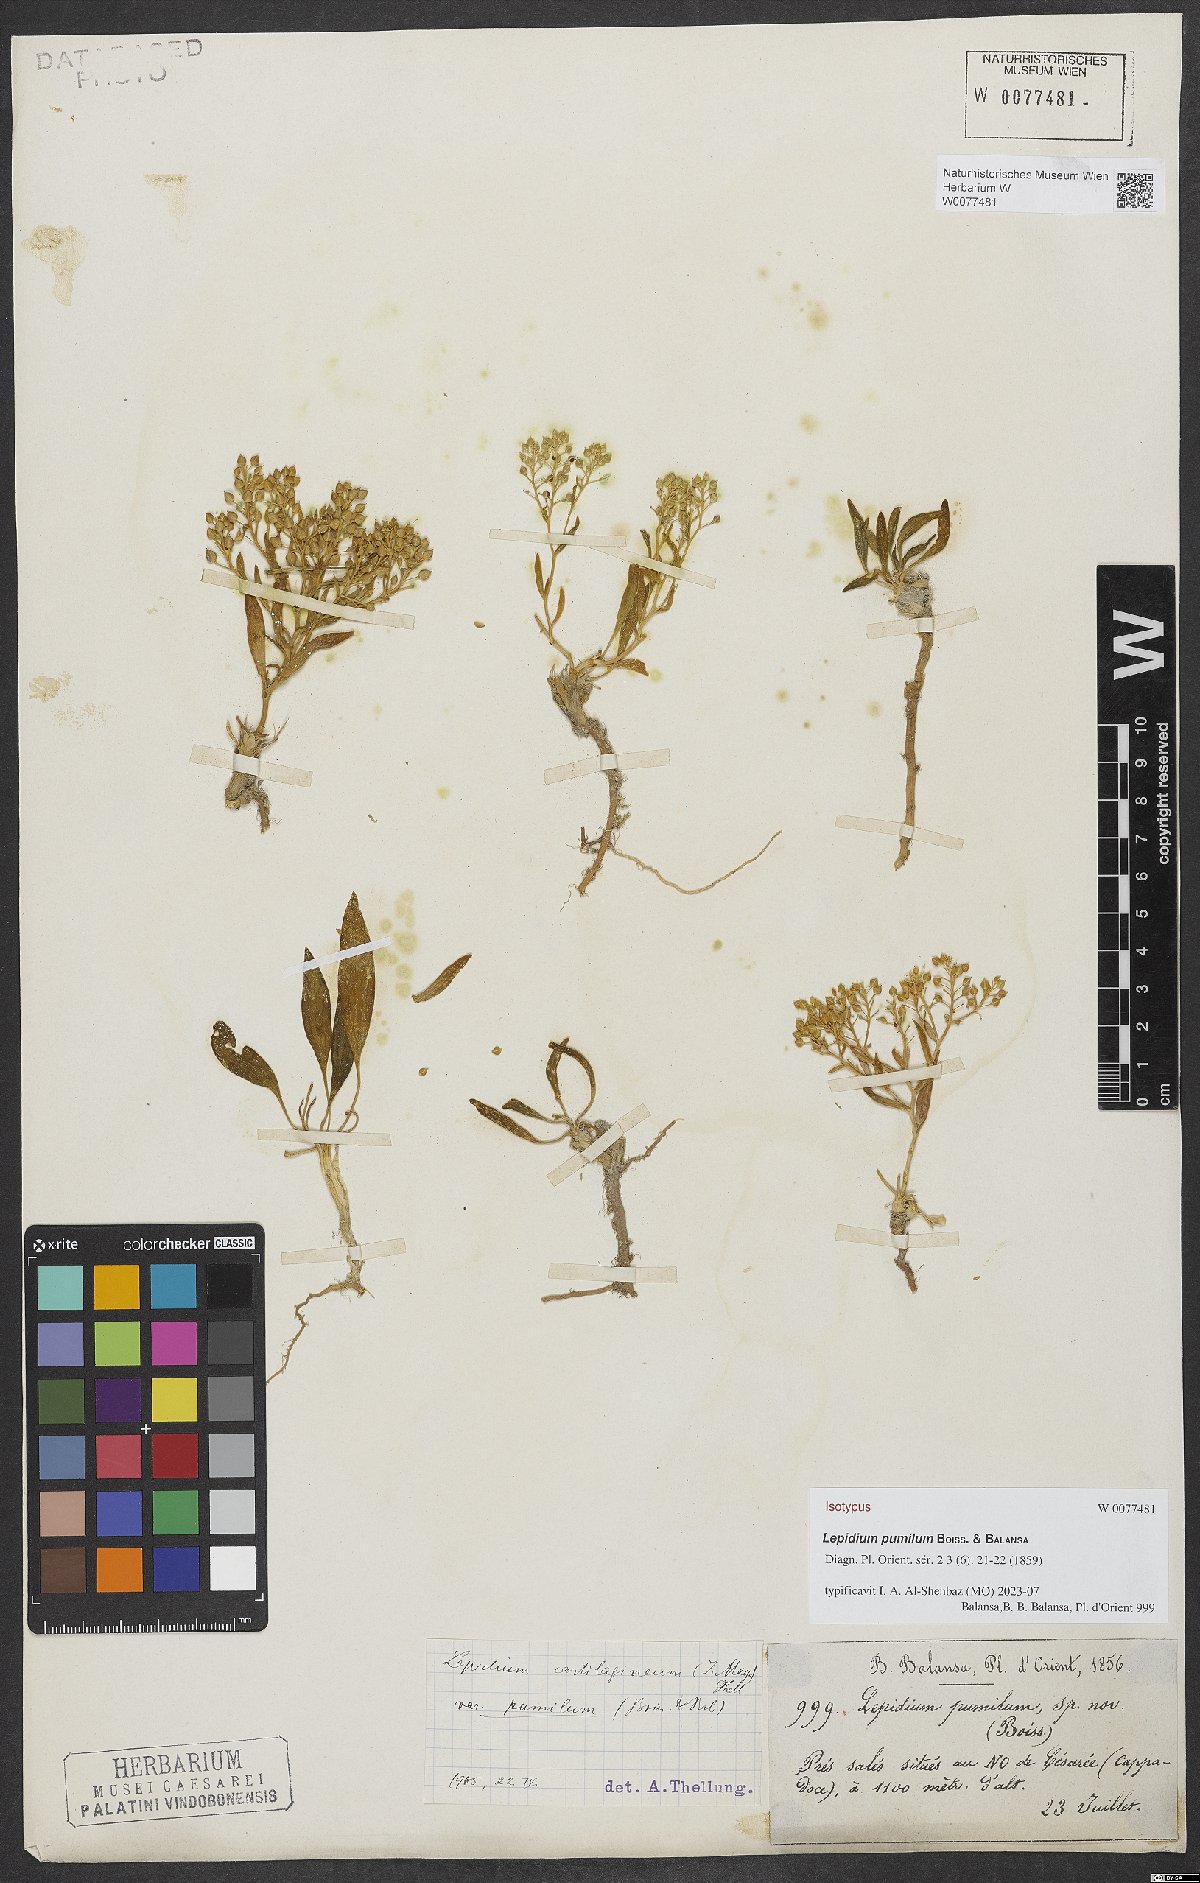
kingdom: Plantae
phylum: Tracheophyta
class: Magnoliopsida
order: Brassicales
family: Brassicaceae
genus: Lepidium
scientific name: Lepidium cartilagineum
